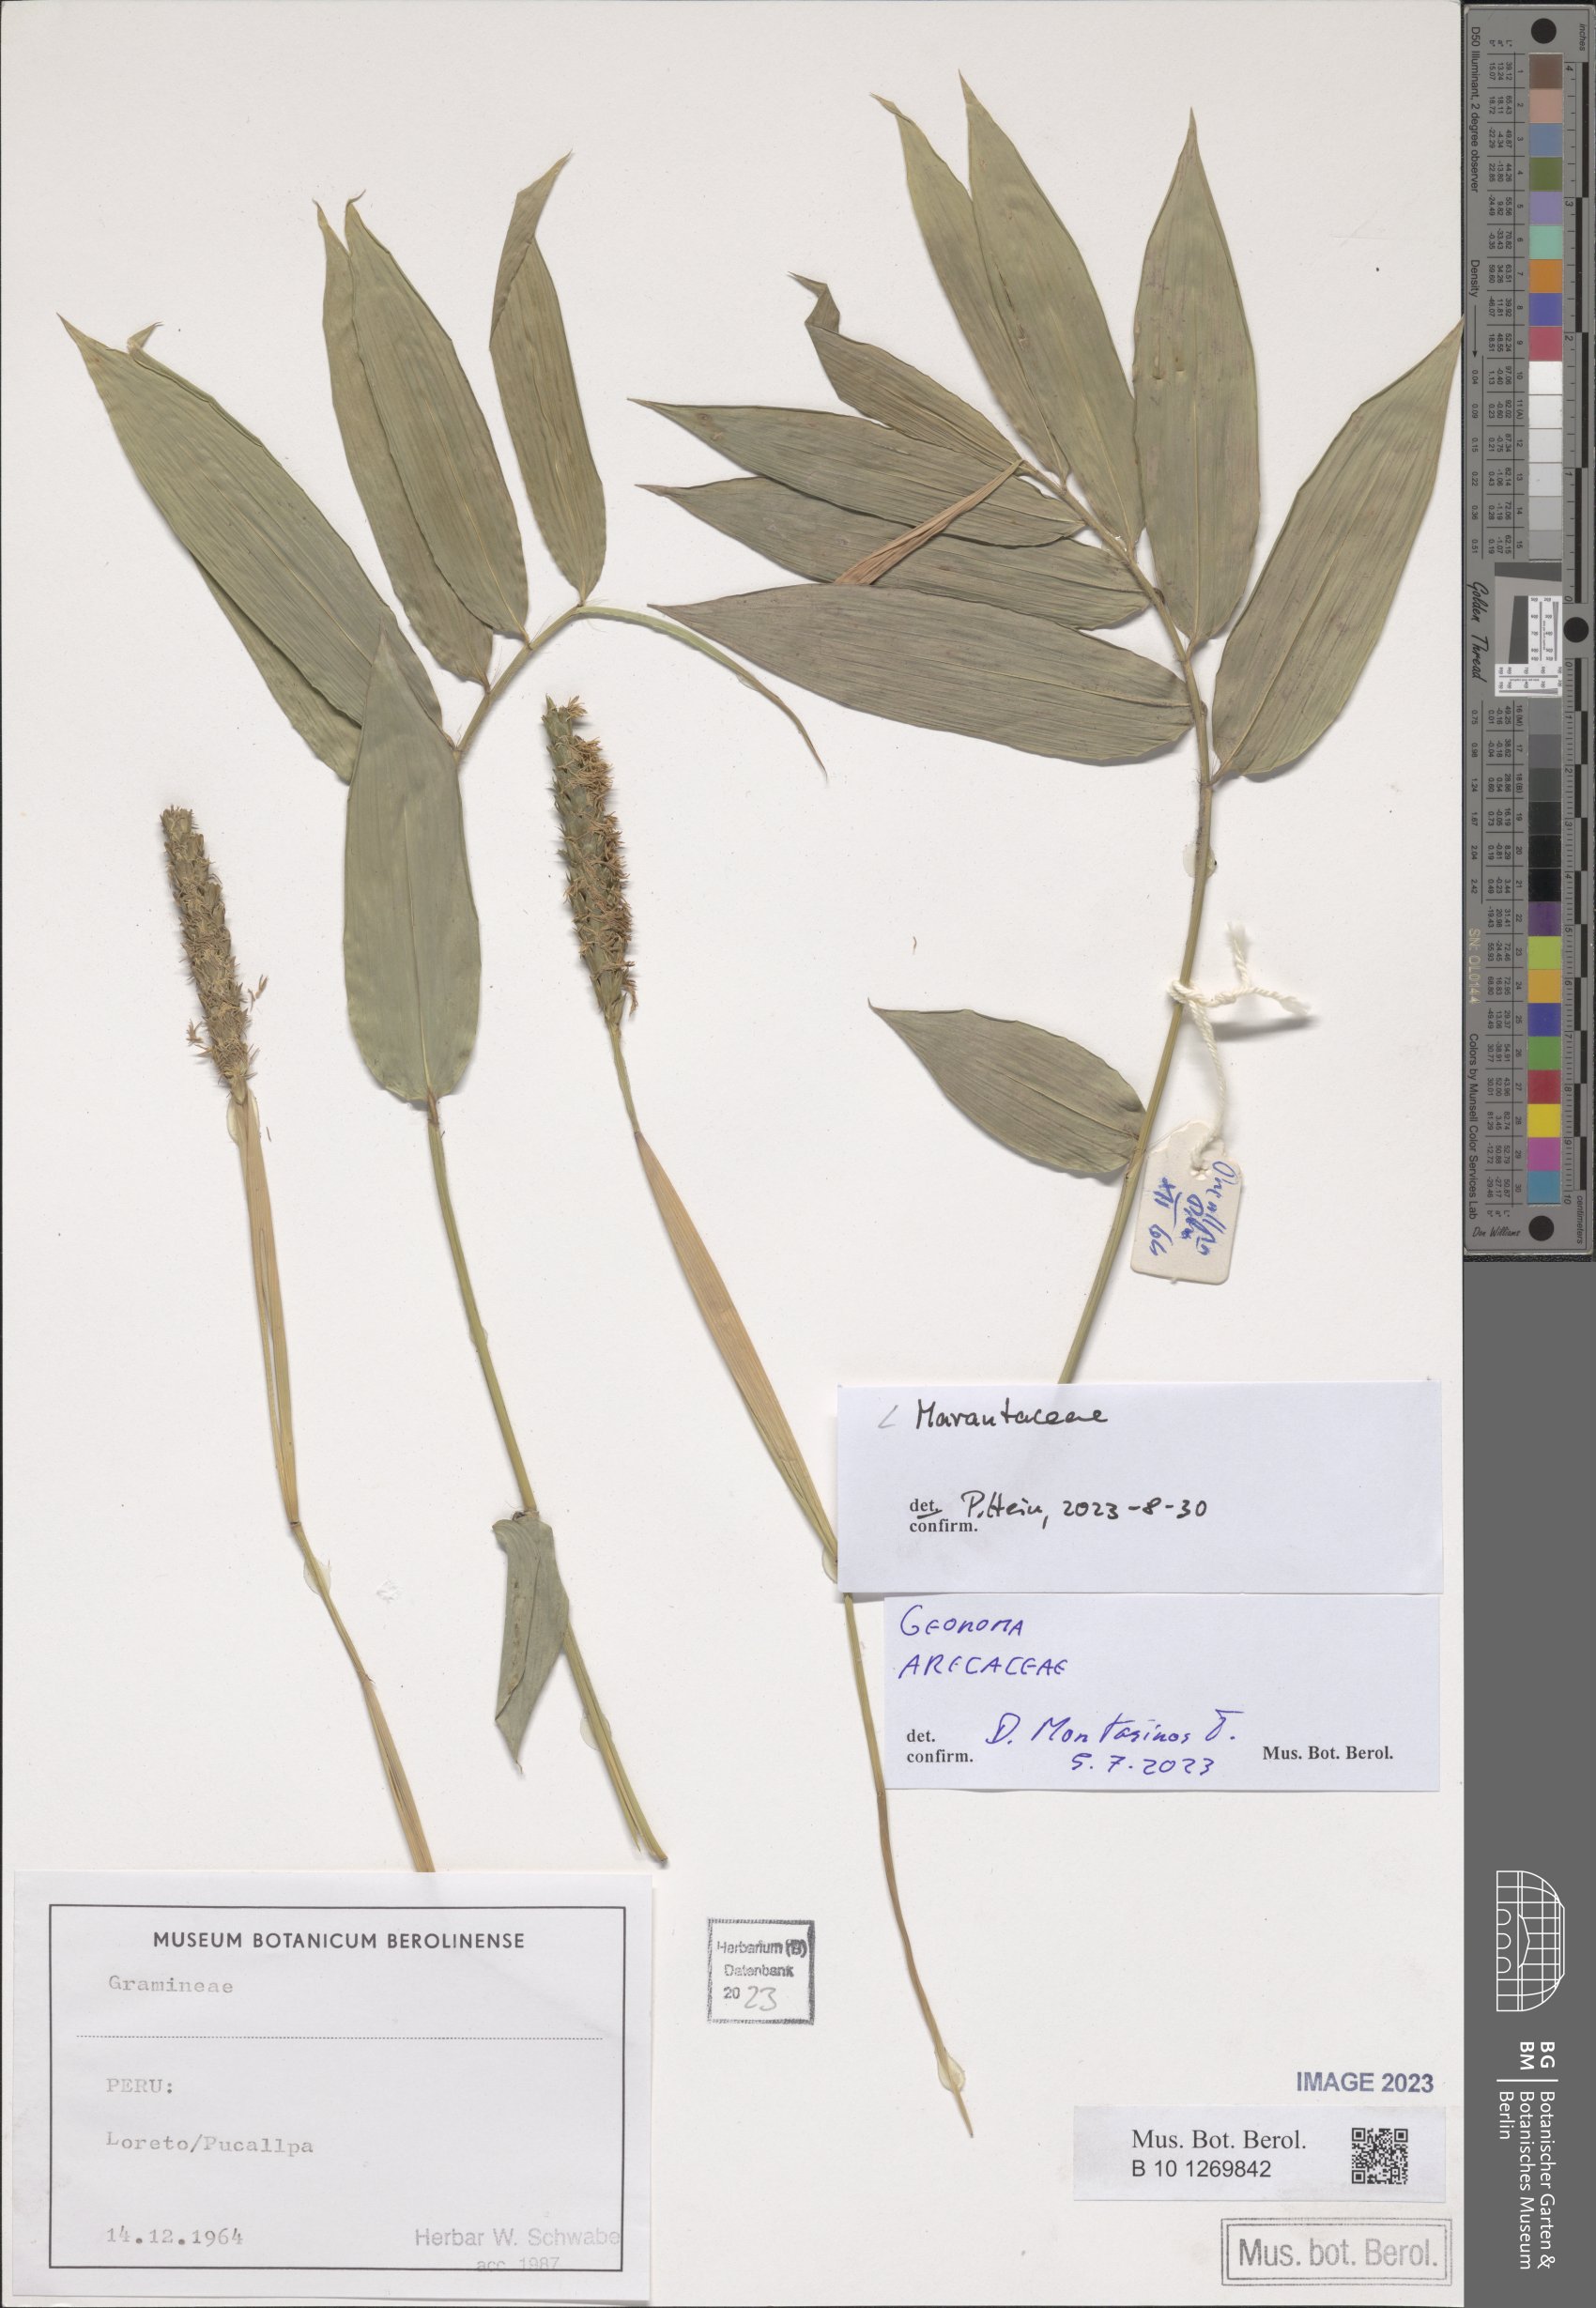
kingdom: Plantae
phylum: Tracheophyta
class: Liliopsida
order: Zingiberales
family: Marantaceae
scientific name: Marantaceae
